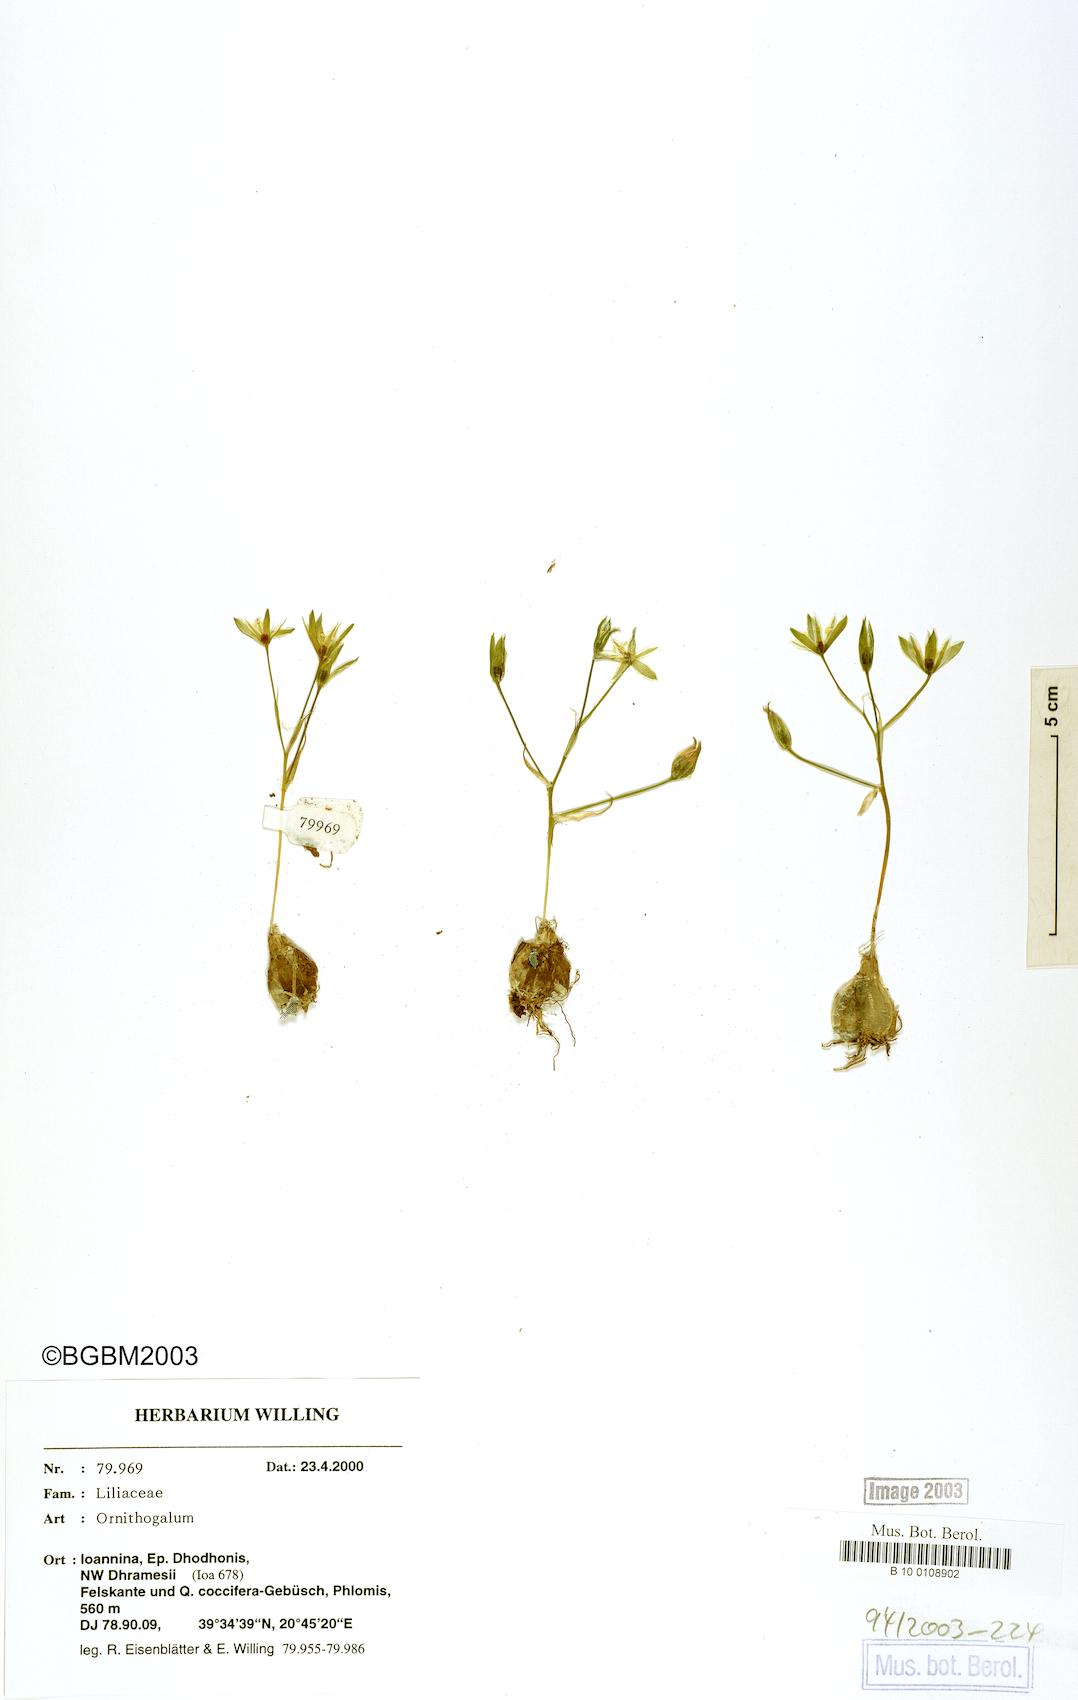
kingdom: Plantae
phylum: Tracheophyta
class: Liliopsida
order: Asparagales
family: Asparagaceae
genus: Ornithogalum
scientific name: Ornithogalum
